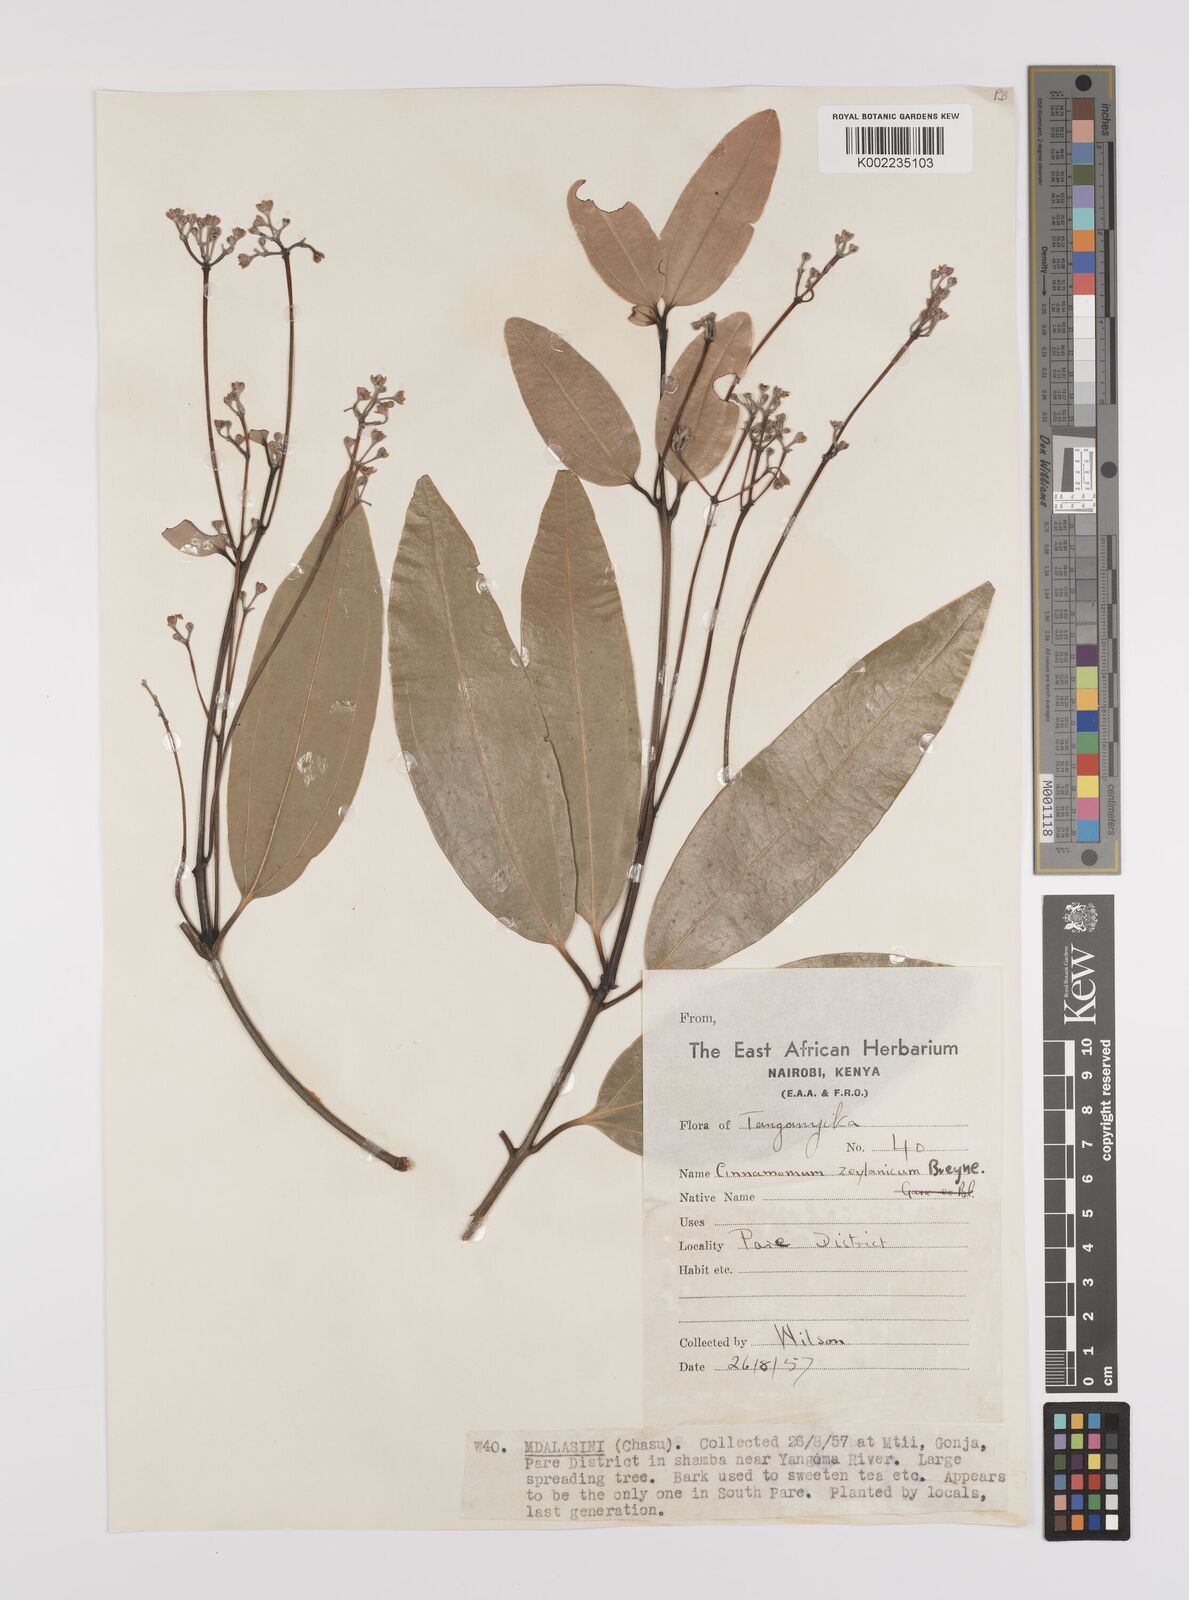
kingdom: Plantae
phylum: Tracheophyta
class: Magnoliopsida
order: Laurales
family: Lauraceae
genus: Cinnamomum
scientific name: Cinnamomum verum
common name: Cinnamon
